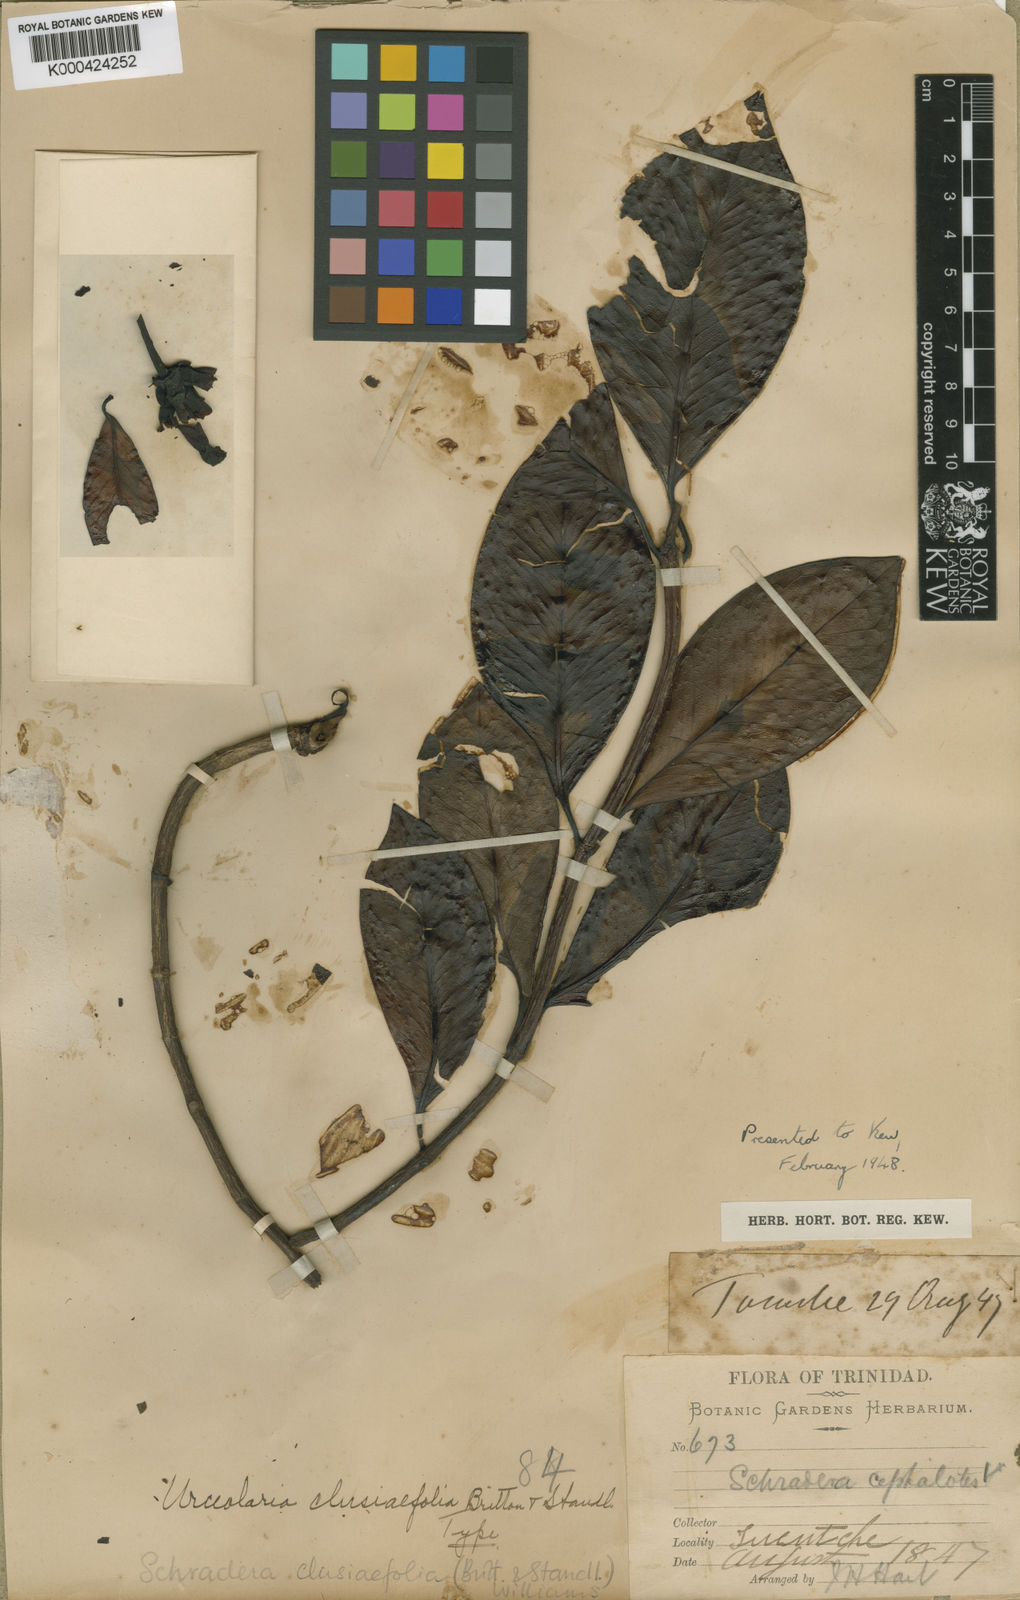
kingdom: Plantae
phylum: Tracheophyta
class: Magnoliopsida
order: Gentianales
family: Rubiaceae
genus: Schradera
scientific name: Schradera clusiifolia
